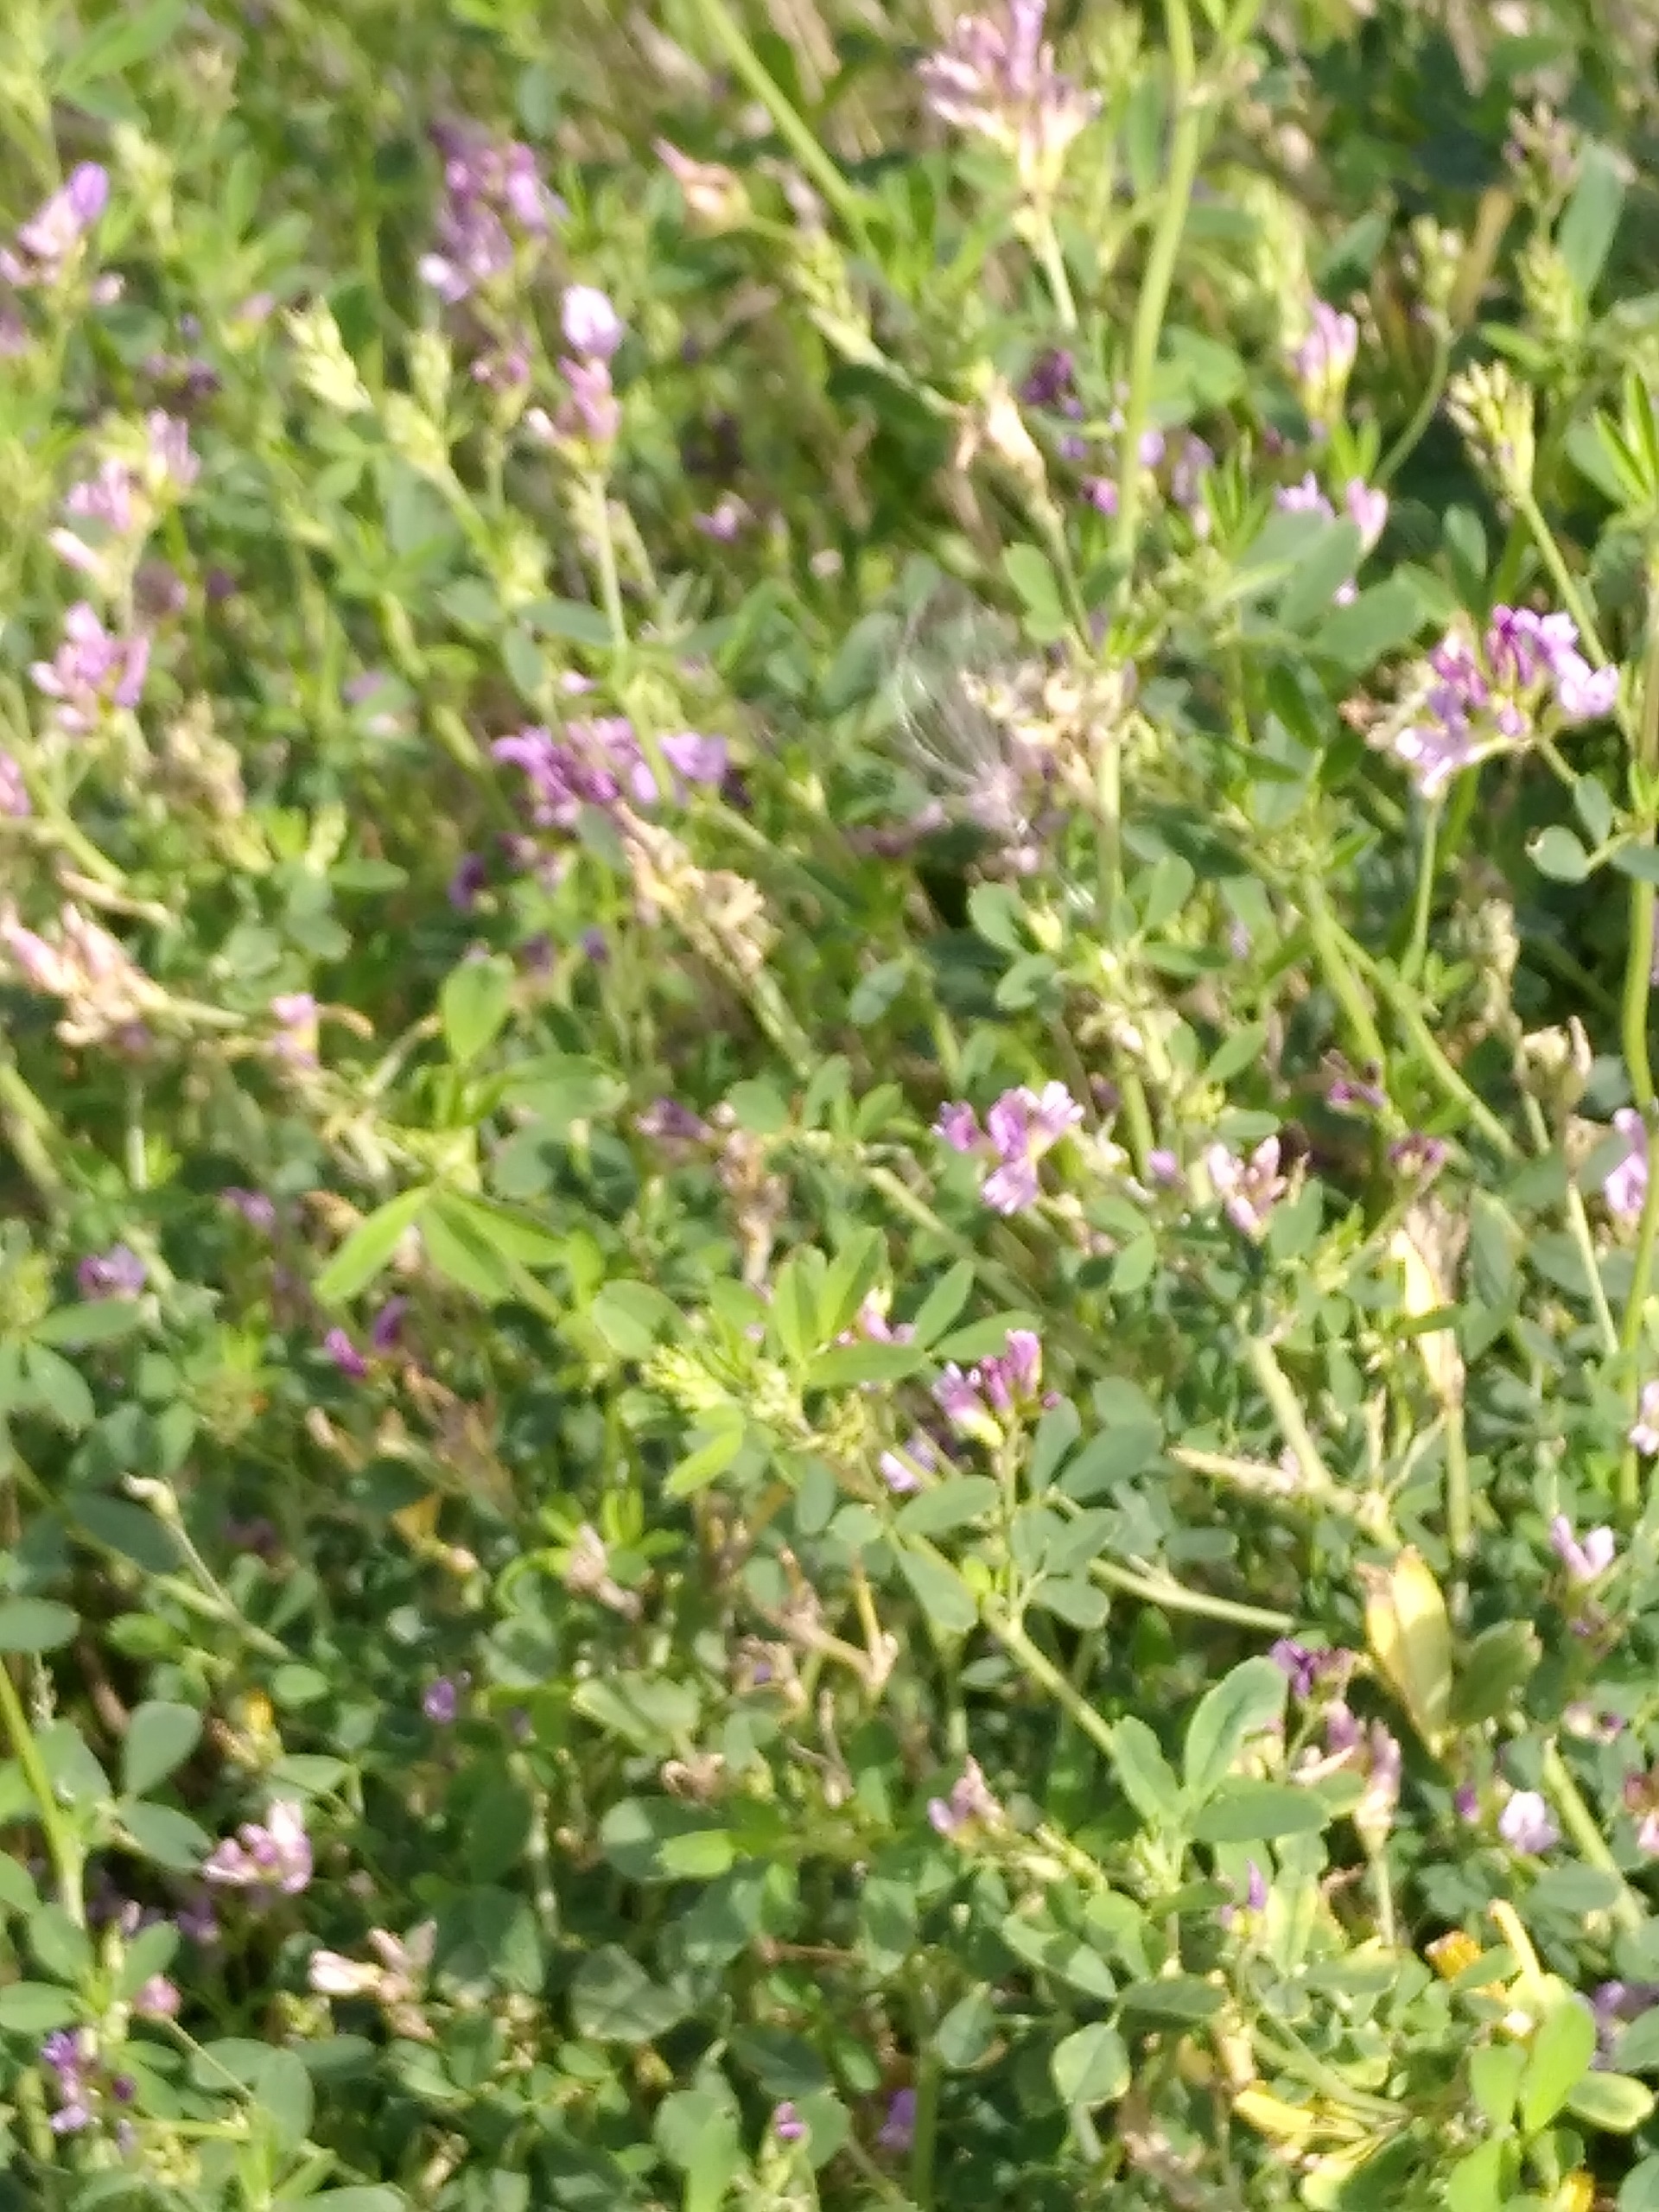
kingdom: Plantae
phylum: Tracheophyta
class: Magnoliopsida
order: Fabales
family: Fabaceae
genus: Medicago
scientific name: Medicago sativa
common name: Lucerne
